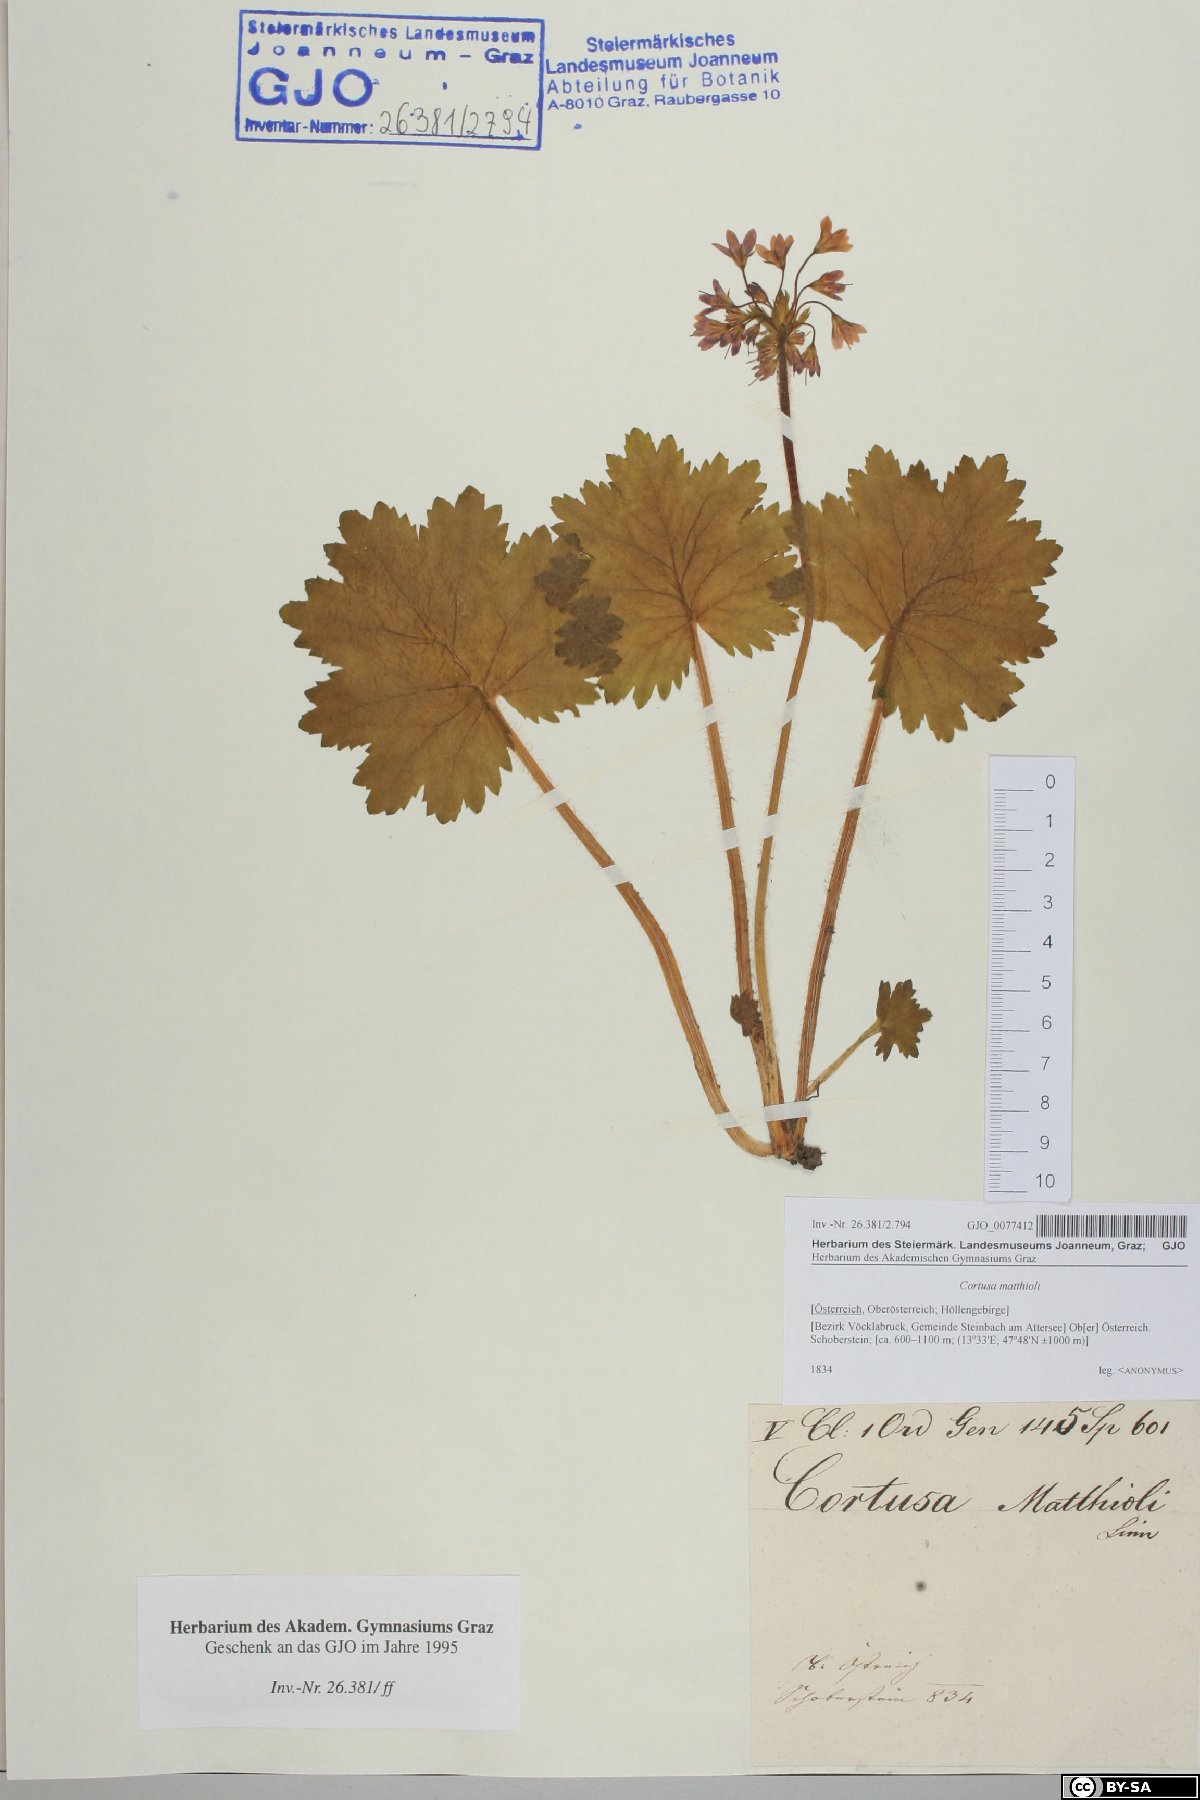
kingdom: Plantae
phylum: Tracheophyta
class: Magnoliopsida
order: Ericales
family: Primulaceae
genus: Primula
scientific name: Primula matthioli
